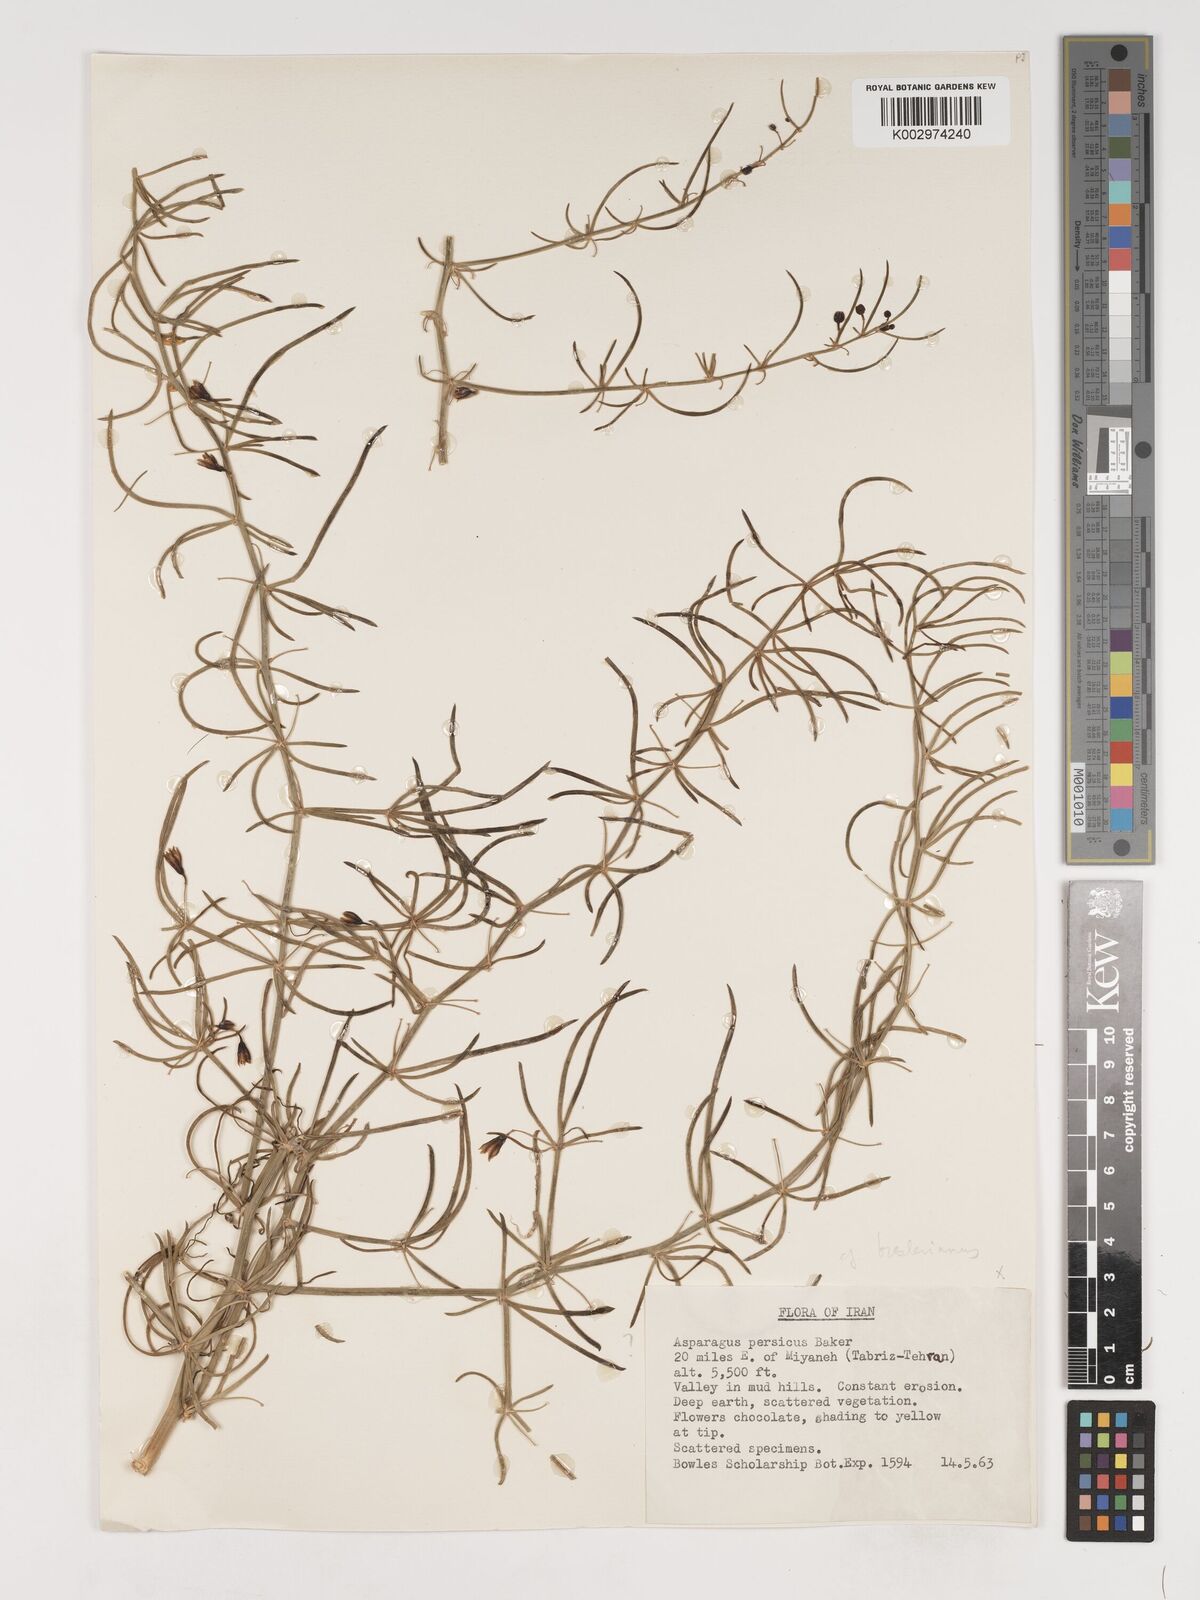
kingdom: Plantae
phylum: Tracheophyta
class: Liliopsida
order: Asparagales
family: Asparagaceae
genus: Asparagus
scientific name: Asparagus breslerianus
